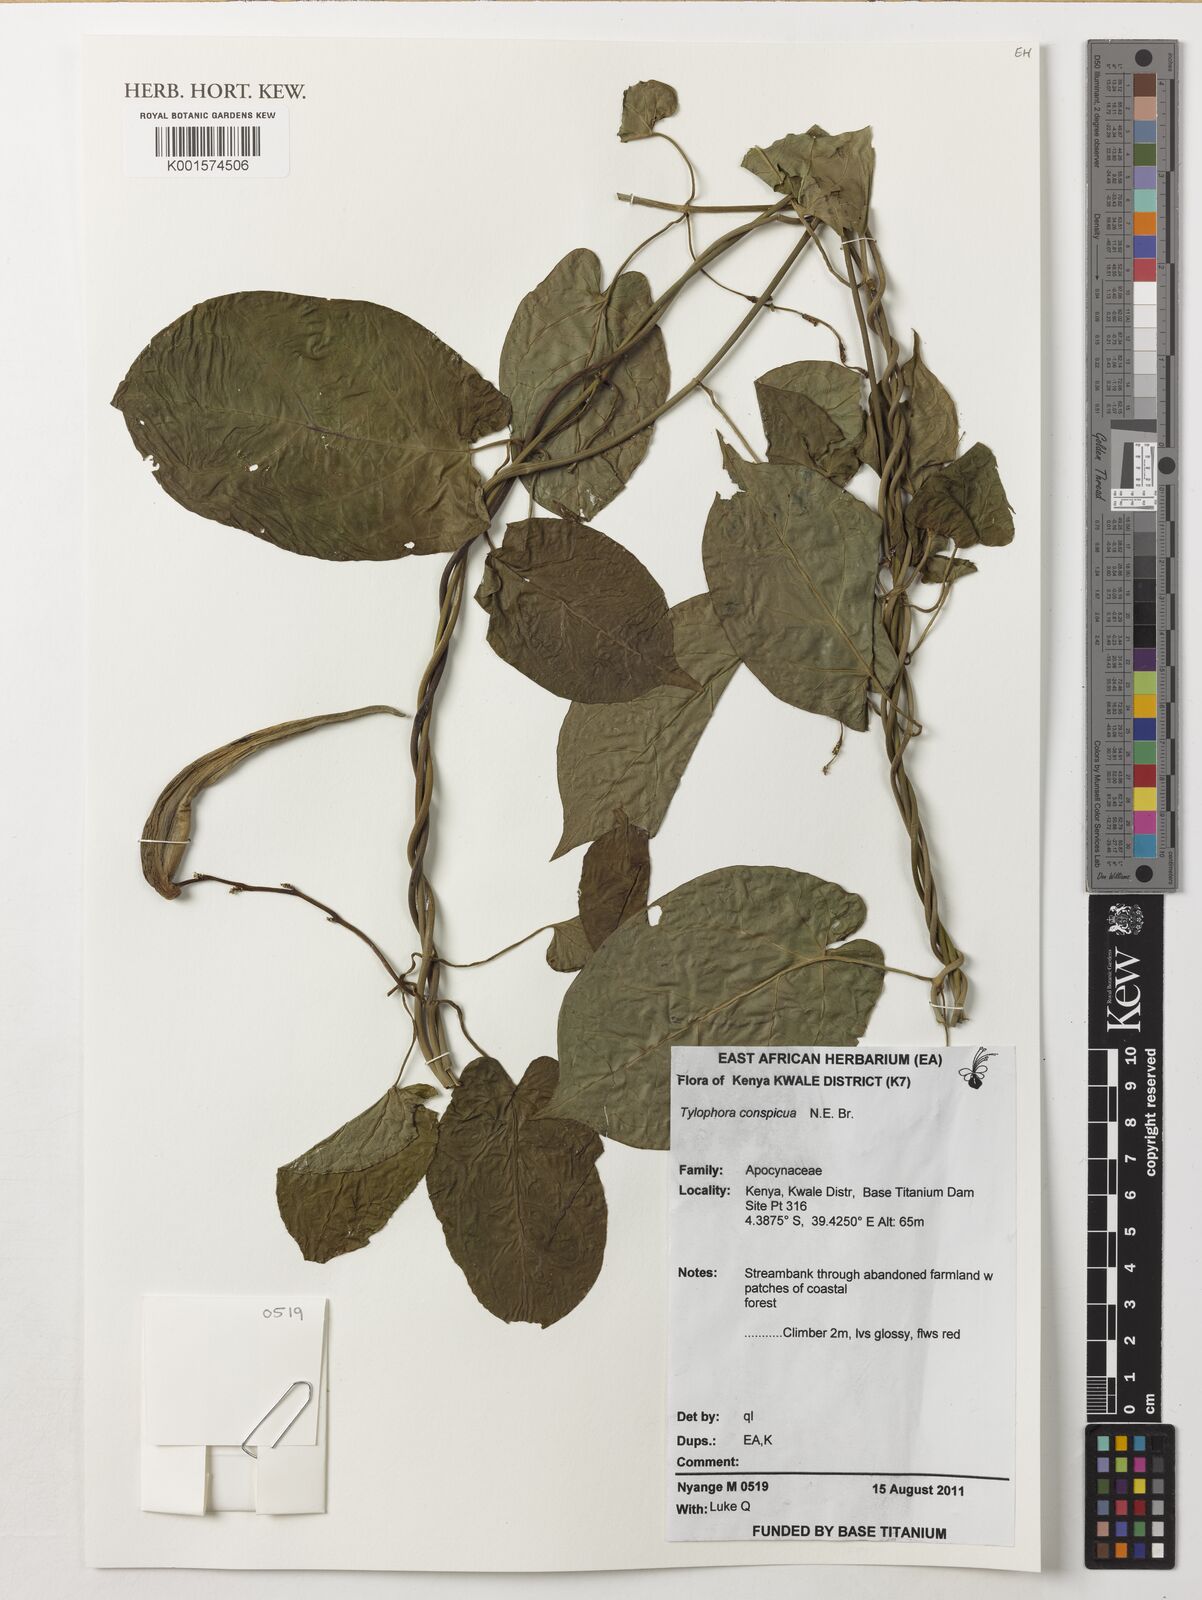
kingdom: Plantae
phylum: Tracheophyta
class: Magnoliopsida
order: Gentianales
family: Apocynaceae
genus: Vincetoxicum
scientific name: Vincetoxicum conspicuum
